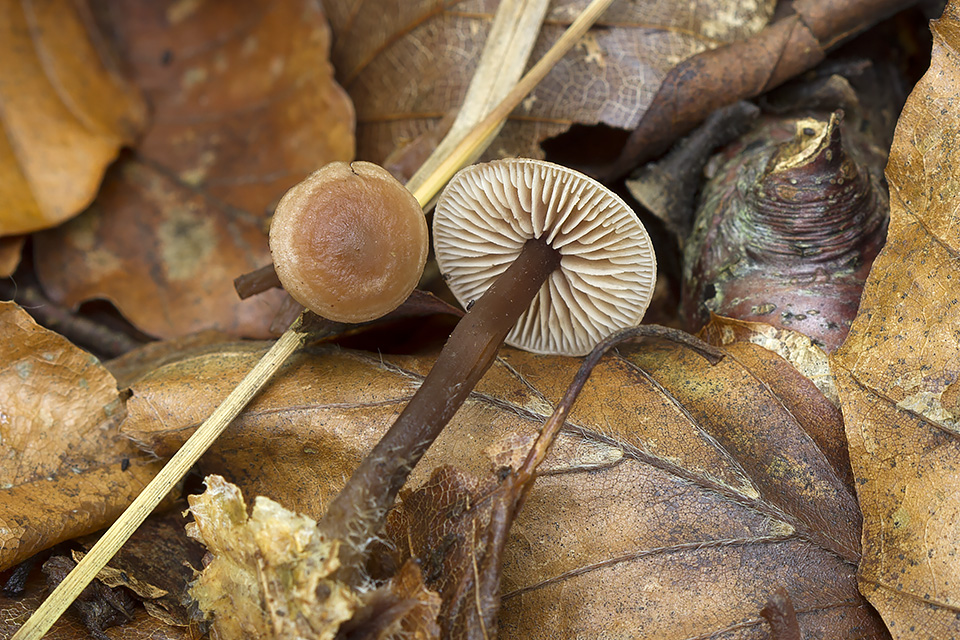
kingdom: Fungi
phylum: Basidiomycota
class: Agaricomycetes
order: Agaricales
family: Omphalotaceae
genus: Gymnopus
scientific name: Gymnopus fagiphilus
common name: bøgeløv-fladhat
